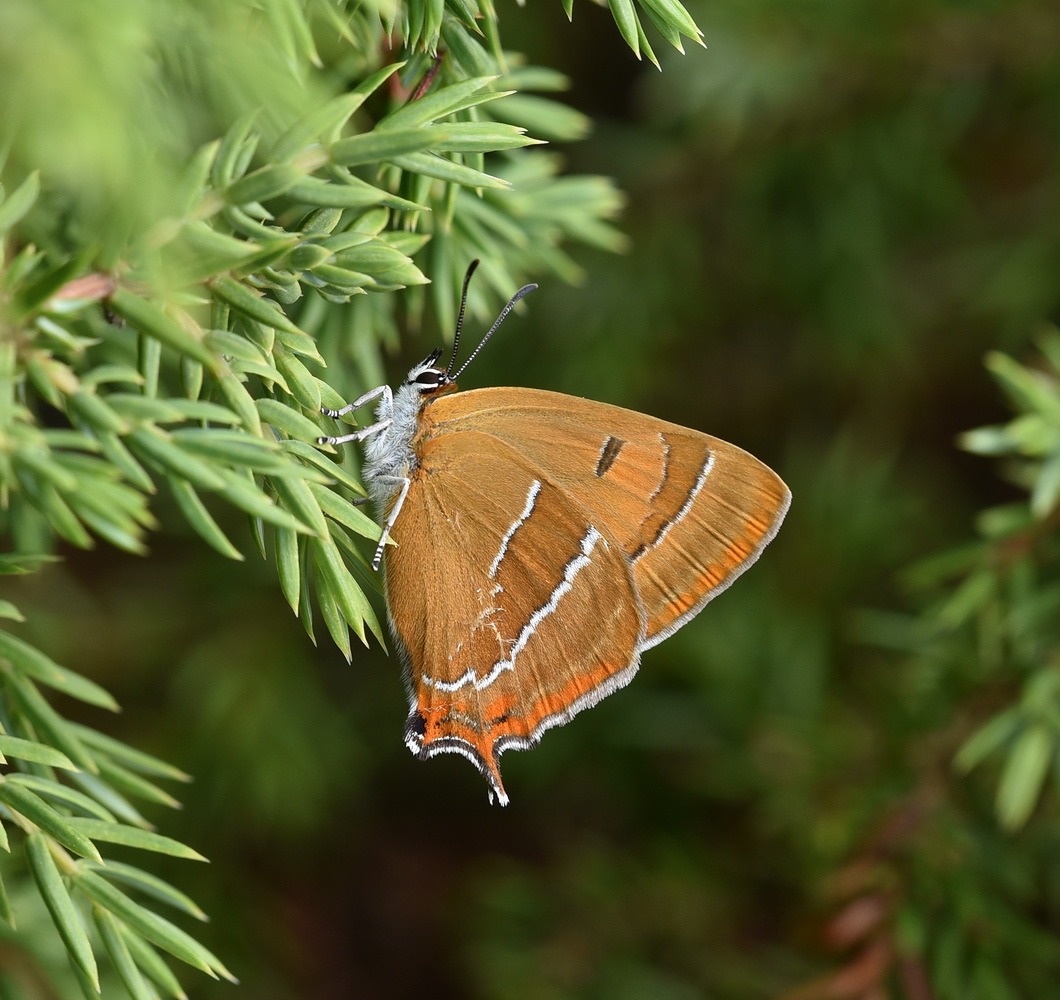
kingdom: Animalia
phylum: Arthropoda
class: Insecta
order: Lepidoptera
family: Lycaenidae
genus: Thecla
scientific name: Thecla betulae
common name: Guldhale
